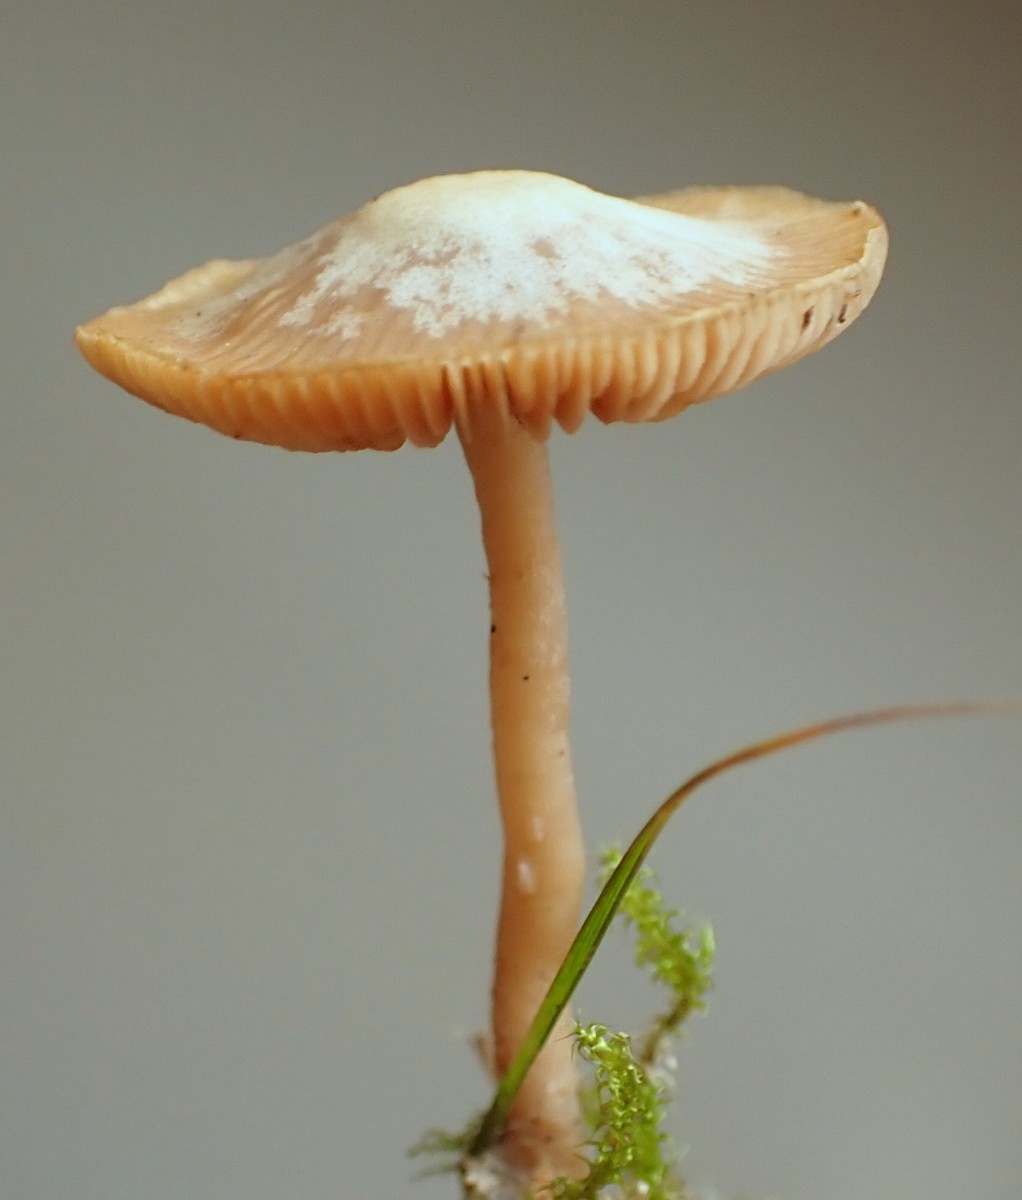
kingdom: Fungi
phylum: Basidiomycota
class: Agaricomycetes
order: Agaricales
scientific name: Agaricales
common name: champignonordenen
